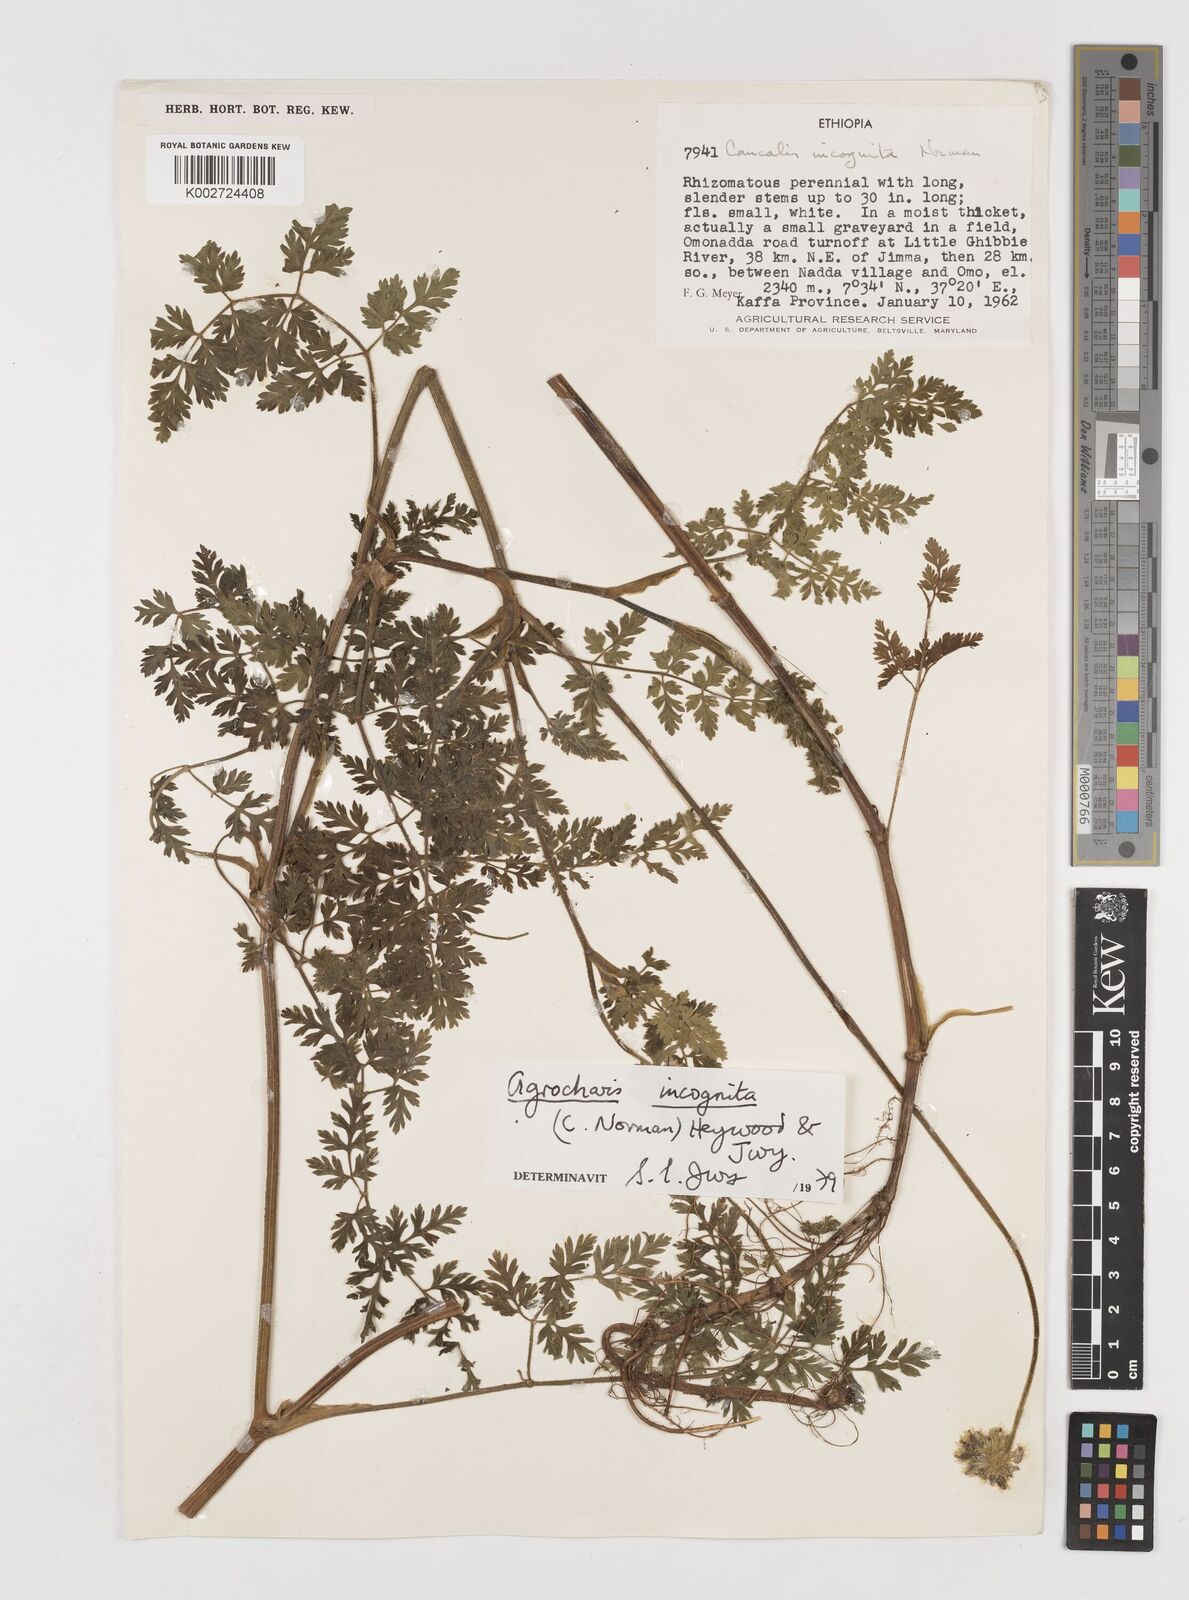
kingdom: Plantae
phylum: Tracheophyta
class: Magnoliopsida
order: Apiales
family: Apiaceae
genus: Daucus
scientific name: Daucus incognitus
